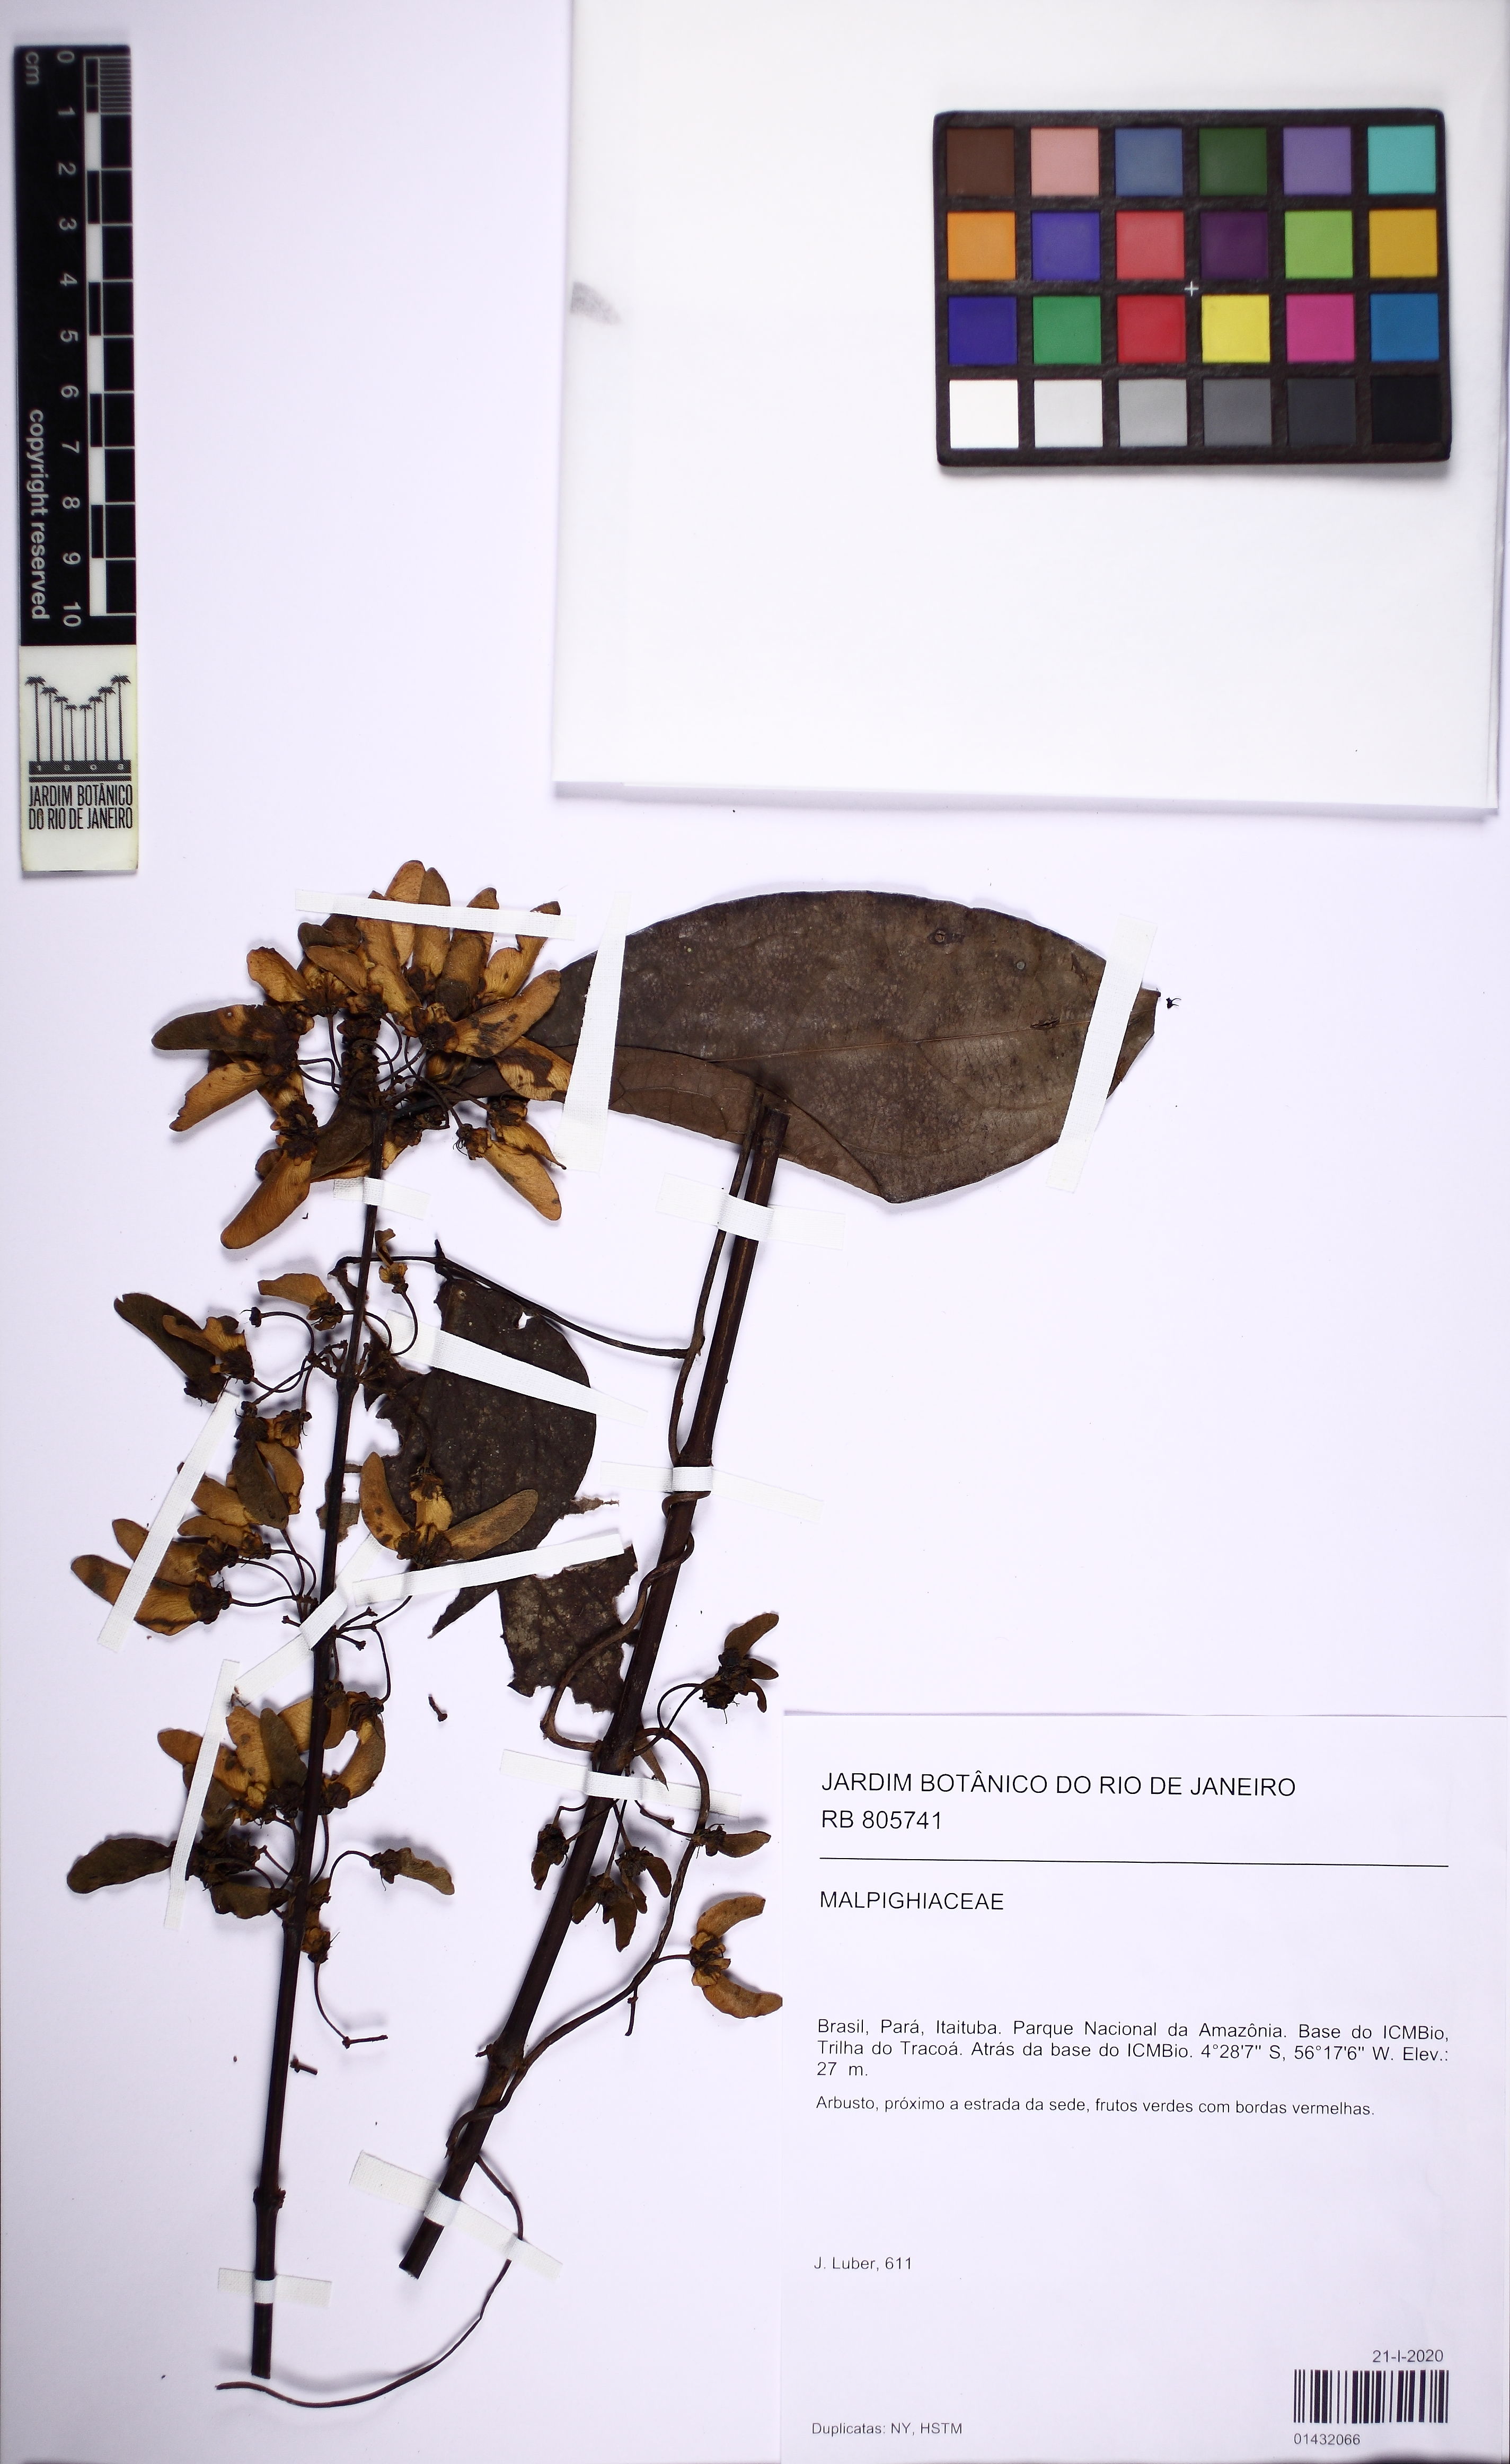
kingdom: Plantae
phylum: Tracheophyta
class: Magnoliopsida
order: Malpighiales
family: Malpighiaceae
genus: Diplopterys
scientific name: Diplopterys
